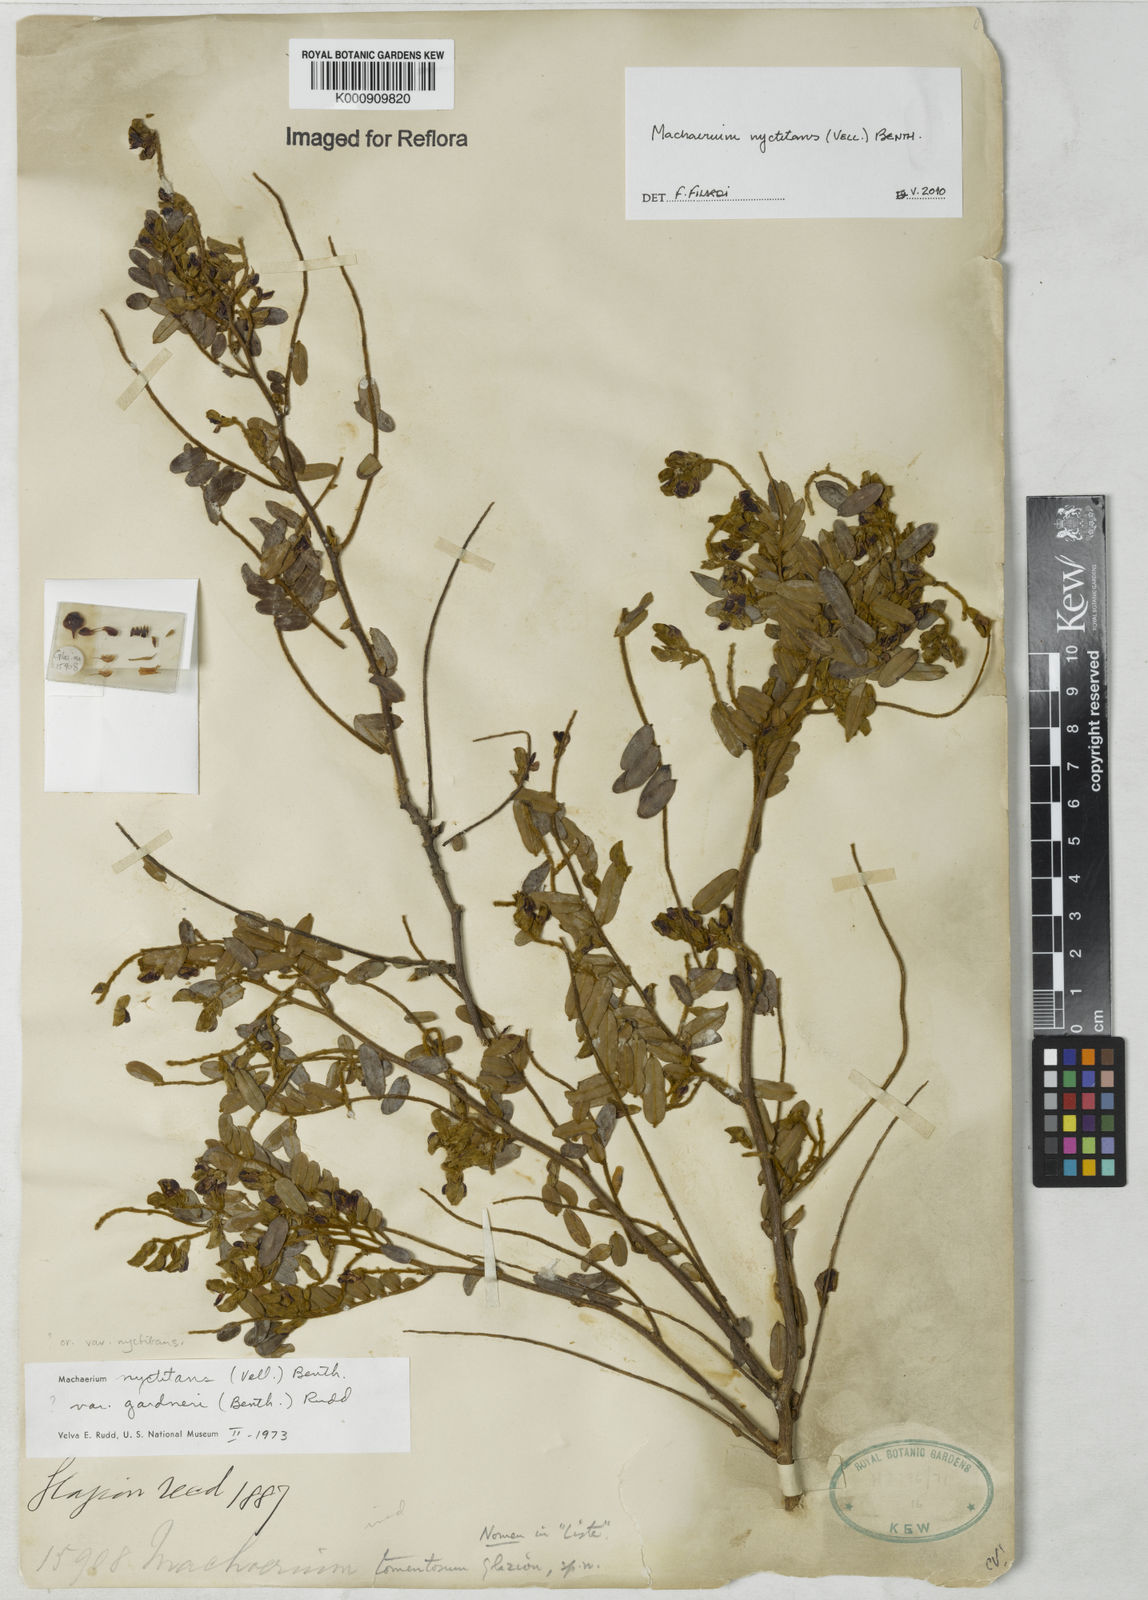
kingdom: Plantae
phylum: Tracheophyta
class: Magnoliopsida
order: Fabales
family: Fabaceae
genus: Machaerium
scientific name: Machaerium nyctitans
